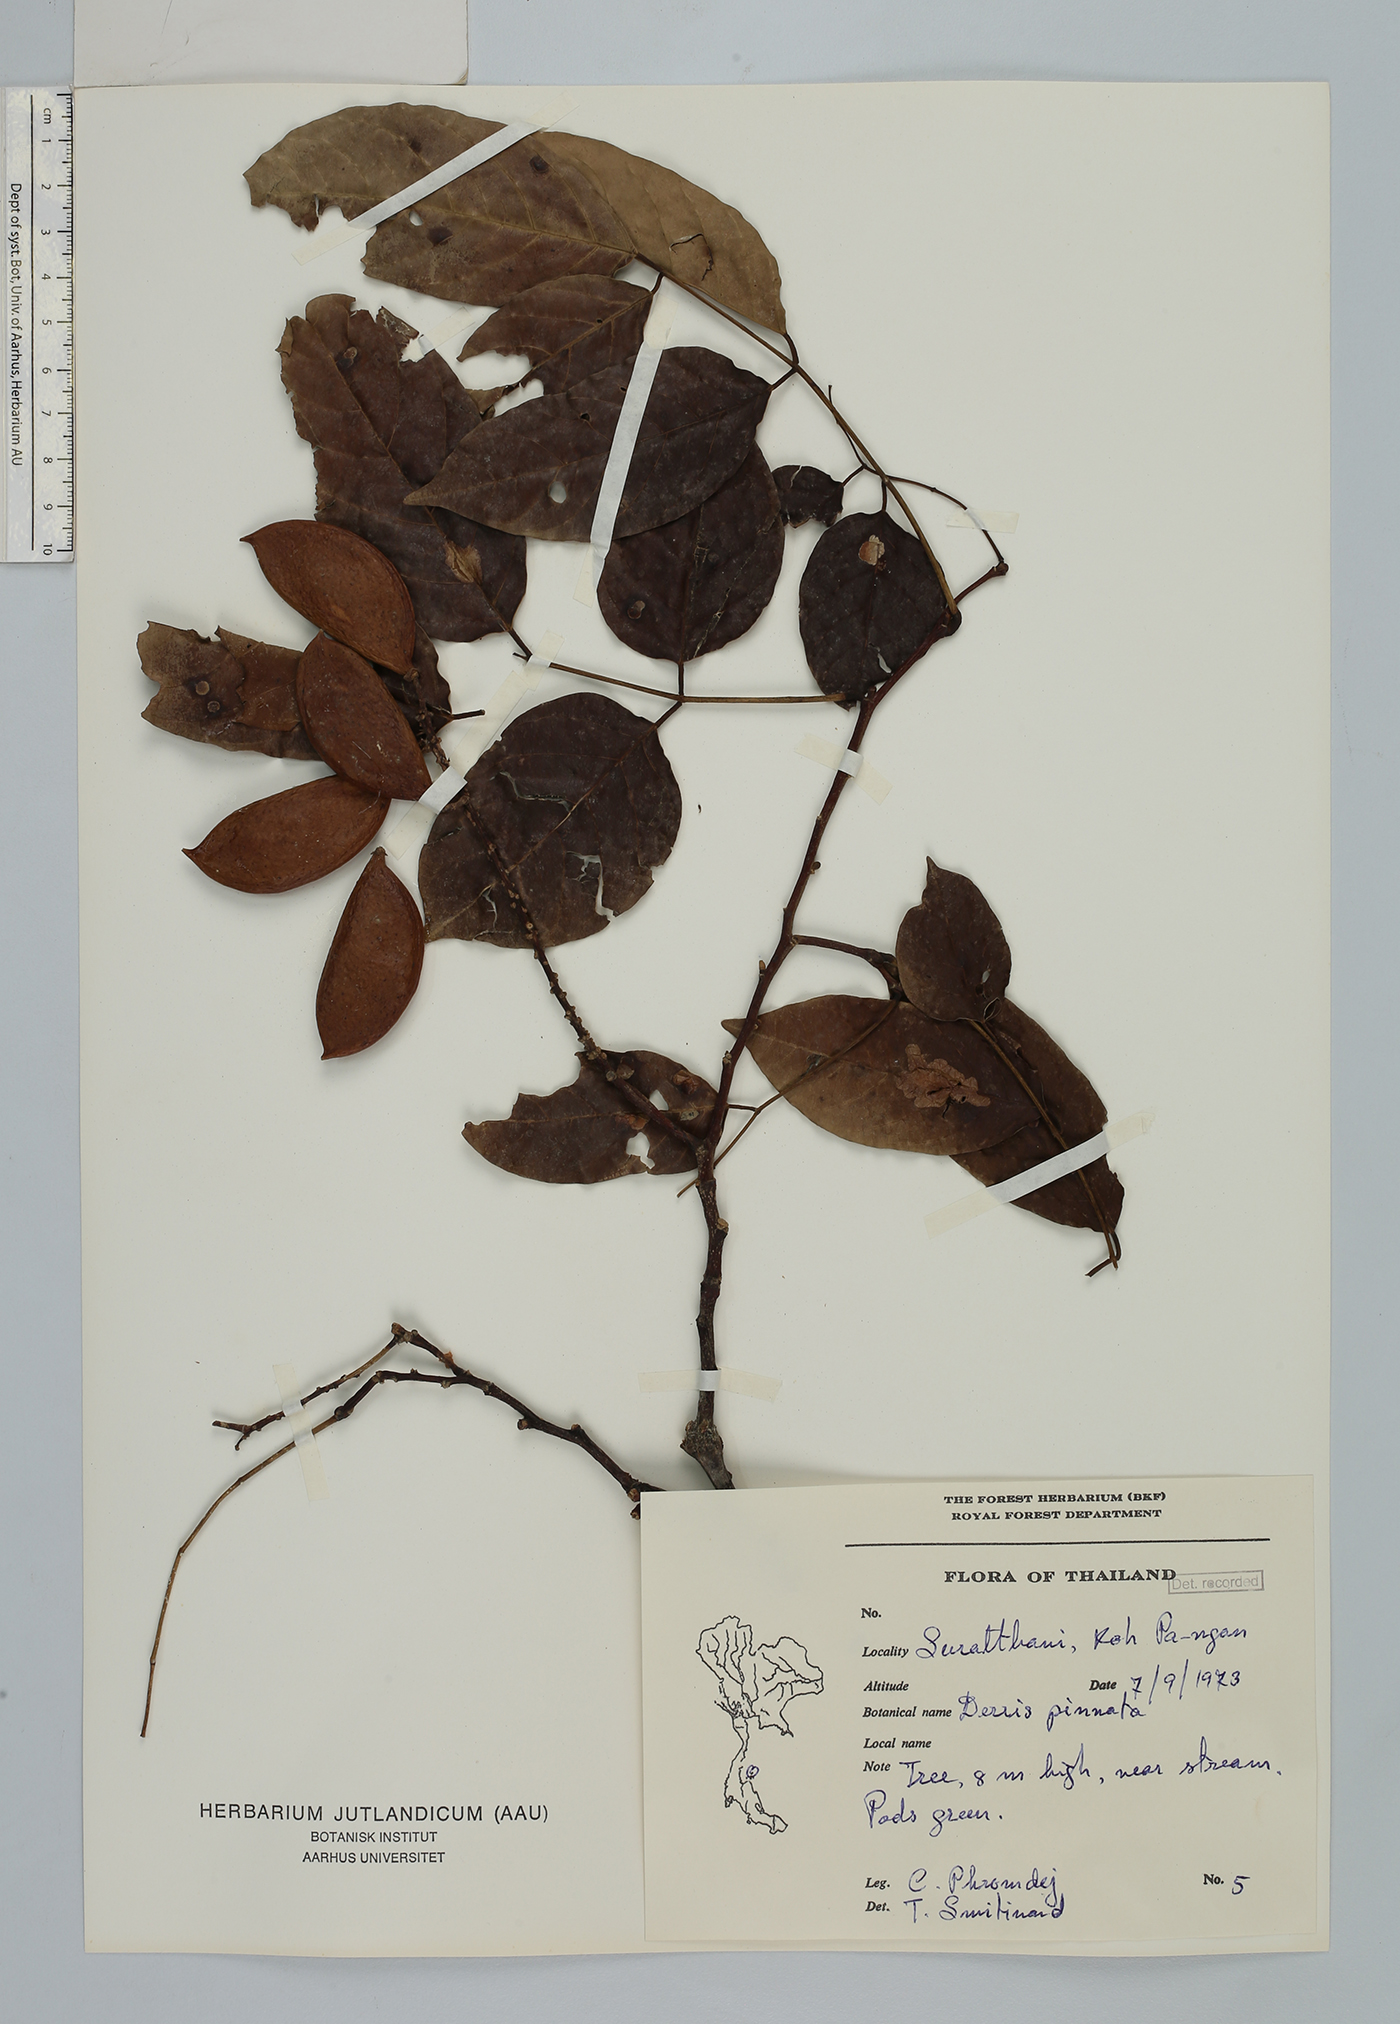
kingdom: Plantae
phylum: Tracheophyta
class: Magnoliopsida
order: Fabales
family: Fabaceae
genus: Derris
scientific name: Derris
